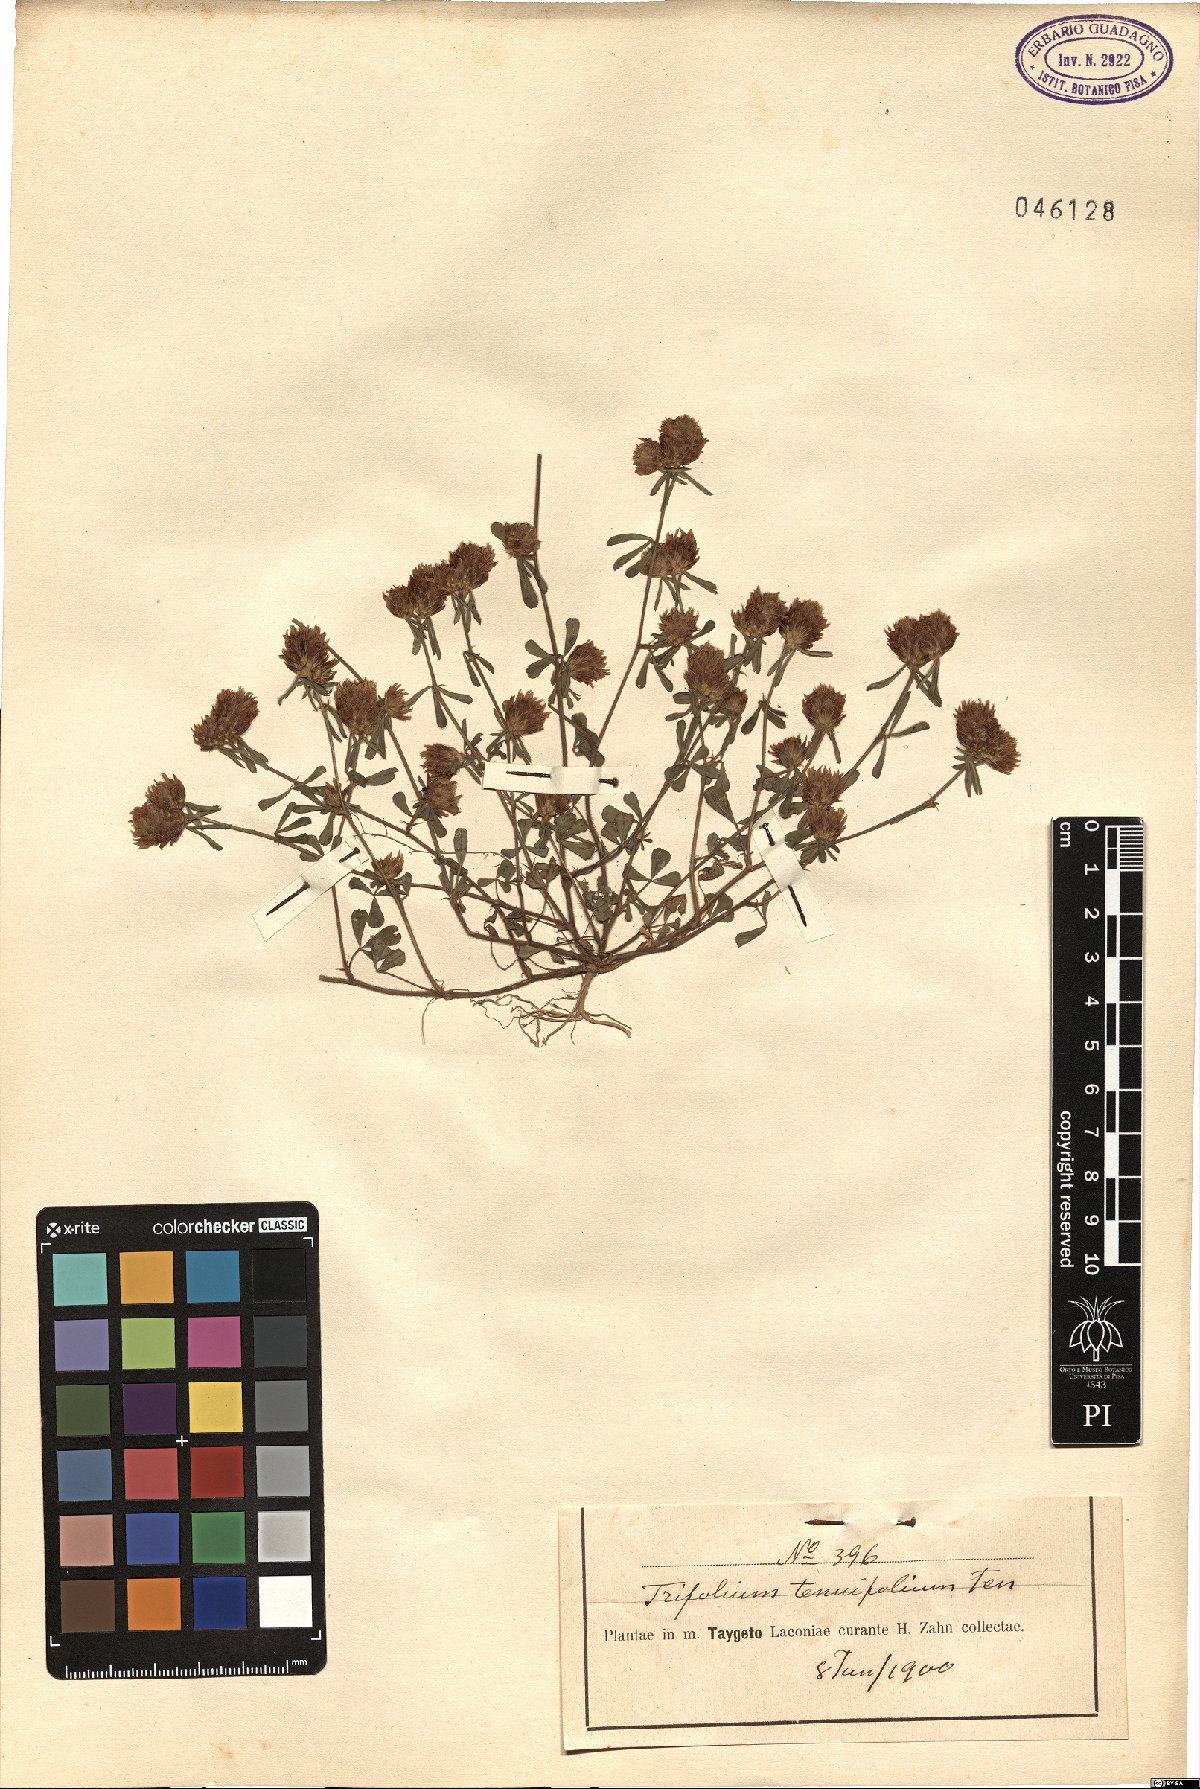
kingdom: Plantae
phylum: Tracheophyta
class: Magnoliopsida
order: Fabales
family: Fabaceae
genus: Trifolium
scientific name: Trifolium tenuifolium
